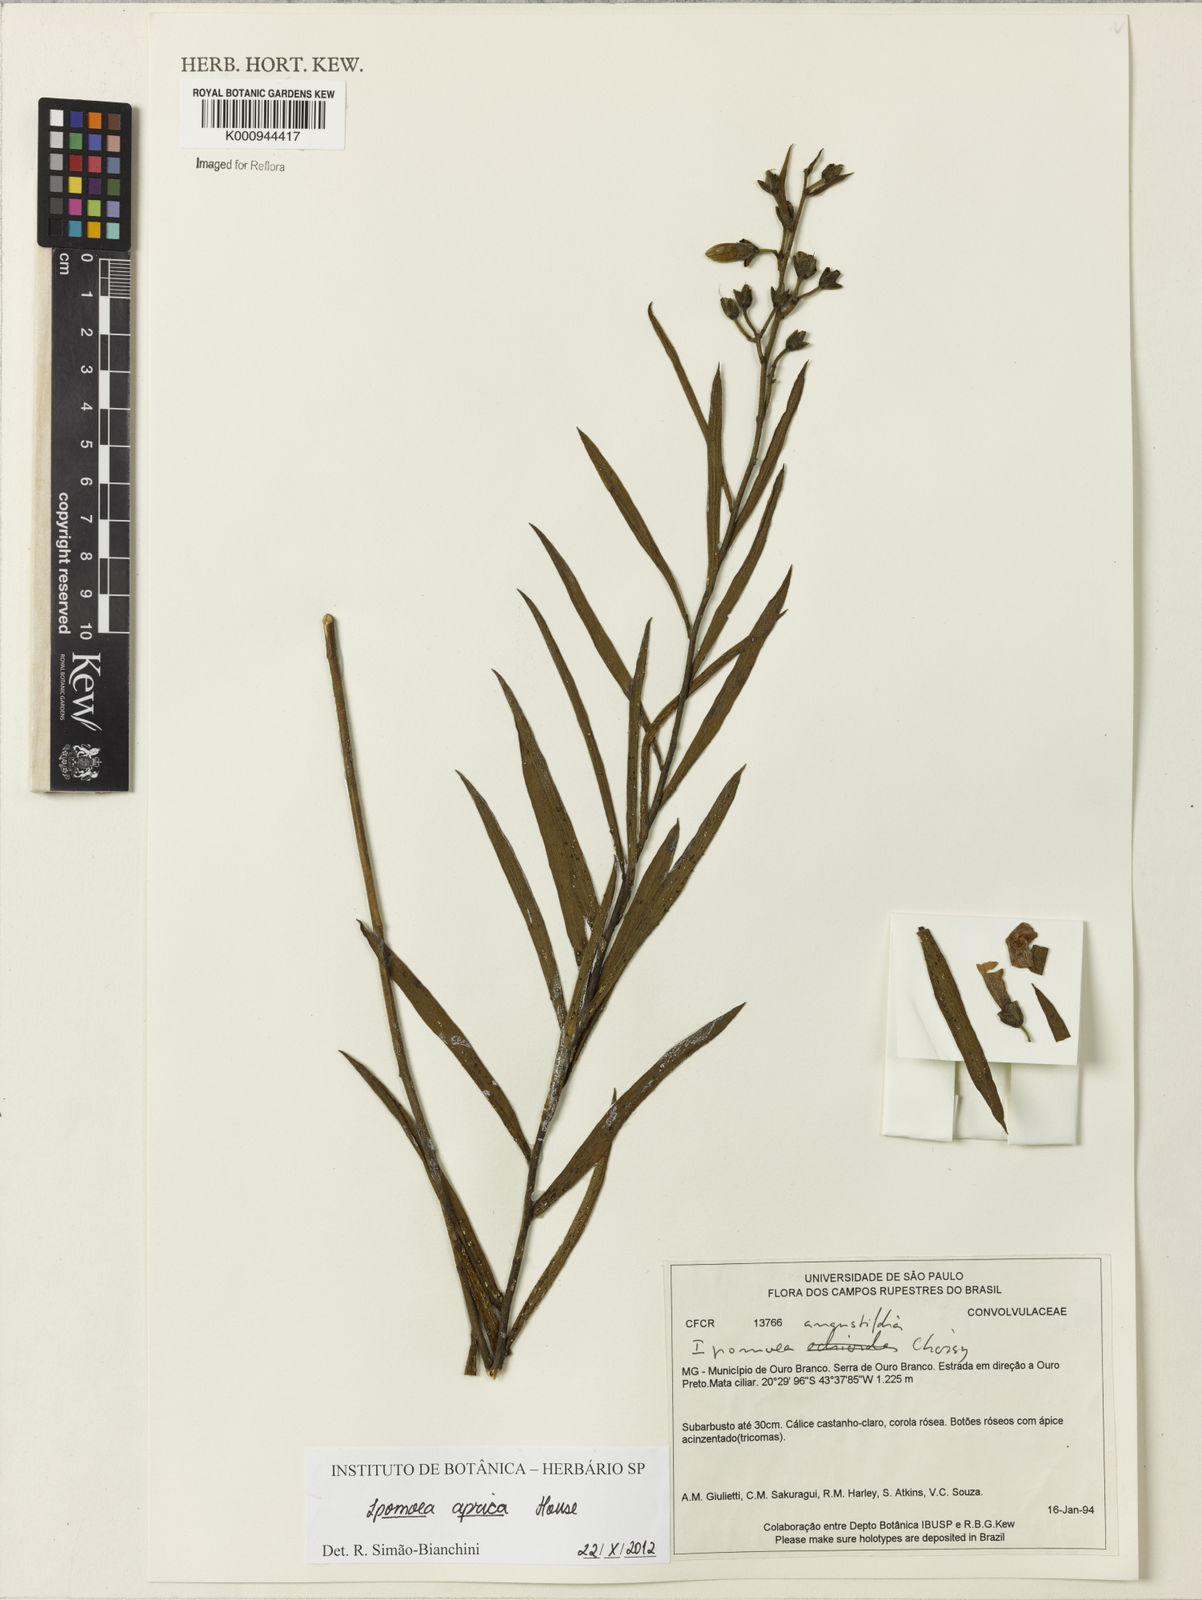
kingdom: Plantae
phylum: Tracheophyta
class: Magnoliopsida
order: Solanales
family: Convolvulaceae
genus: Ipomoea
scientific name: Ipomoea aprica
